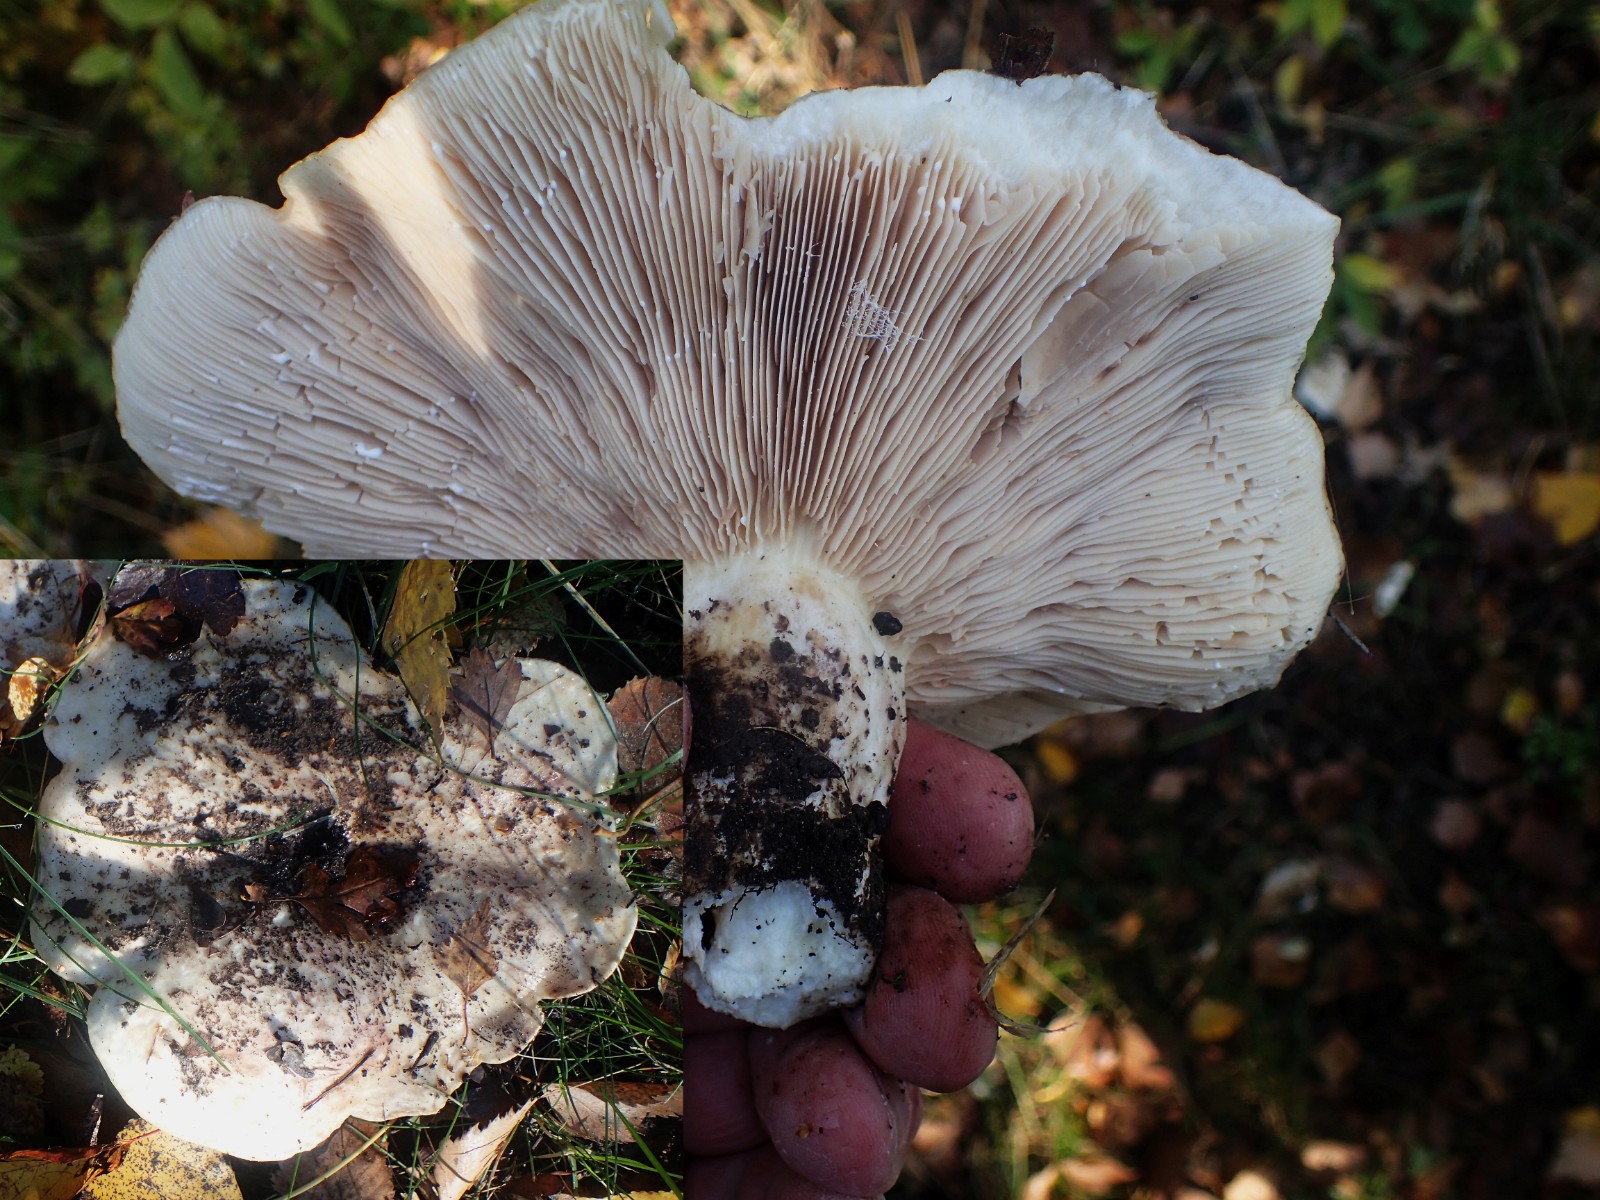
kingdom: Fungi
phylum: Basidiomycota
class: Agaricomycetes
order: Russulales
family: Russulaceae
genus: Lactifluus
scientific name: Lactifluus
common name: mælkehat
